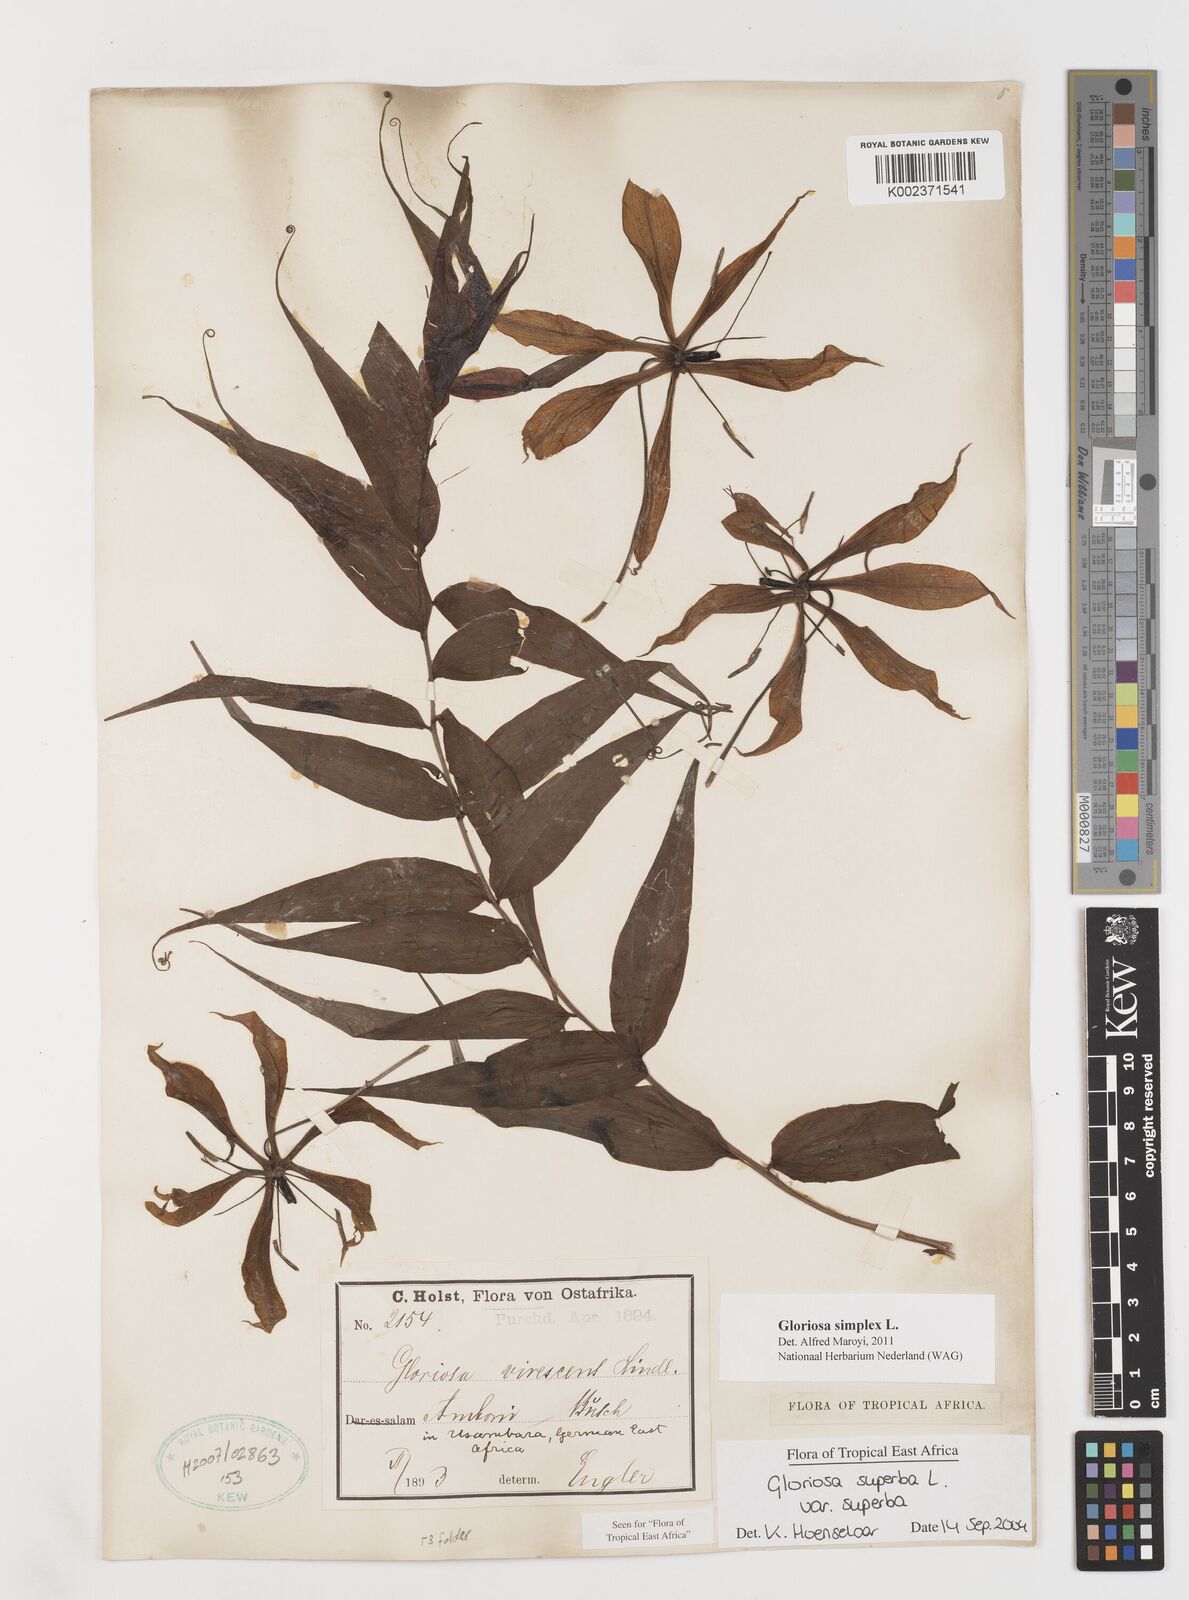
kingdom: Plantae
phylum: Tracheophyta
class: Liliopsida
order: Liliales
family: Colchicaceae
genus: Gloriosa
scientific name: Gloriosa simplex
